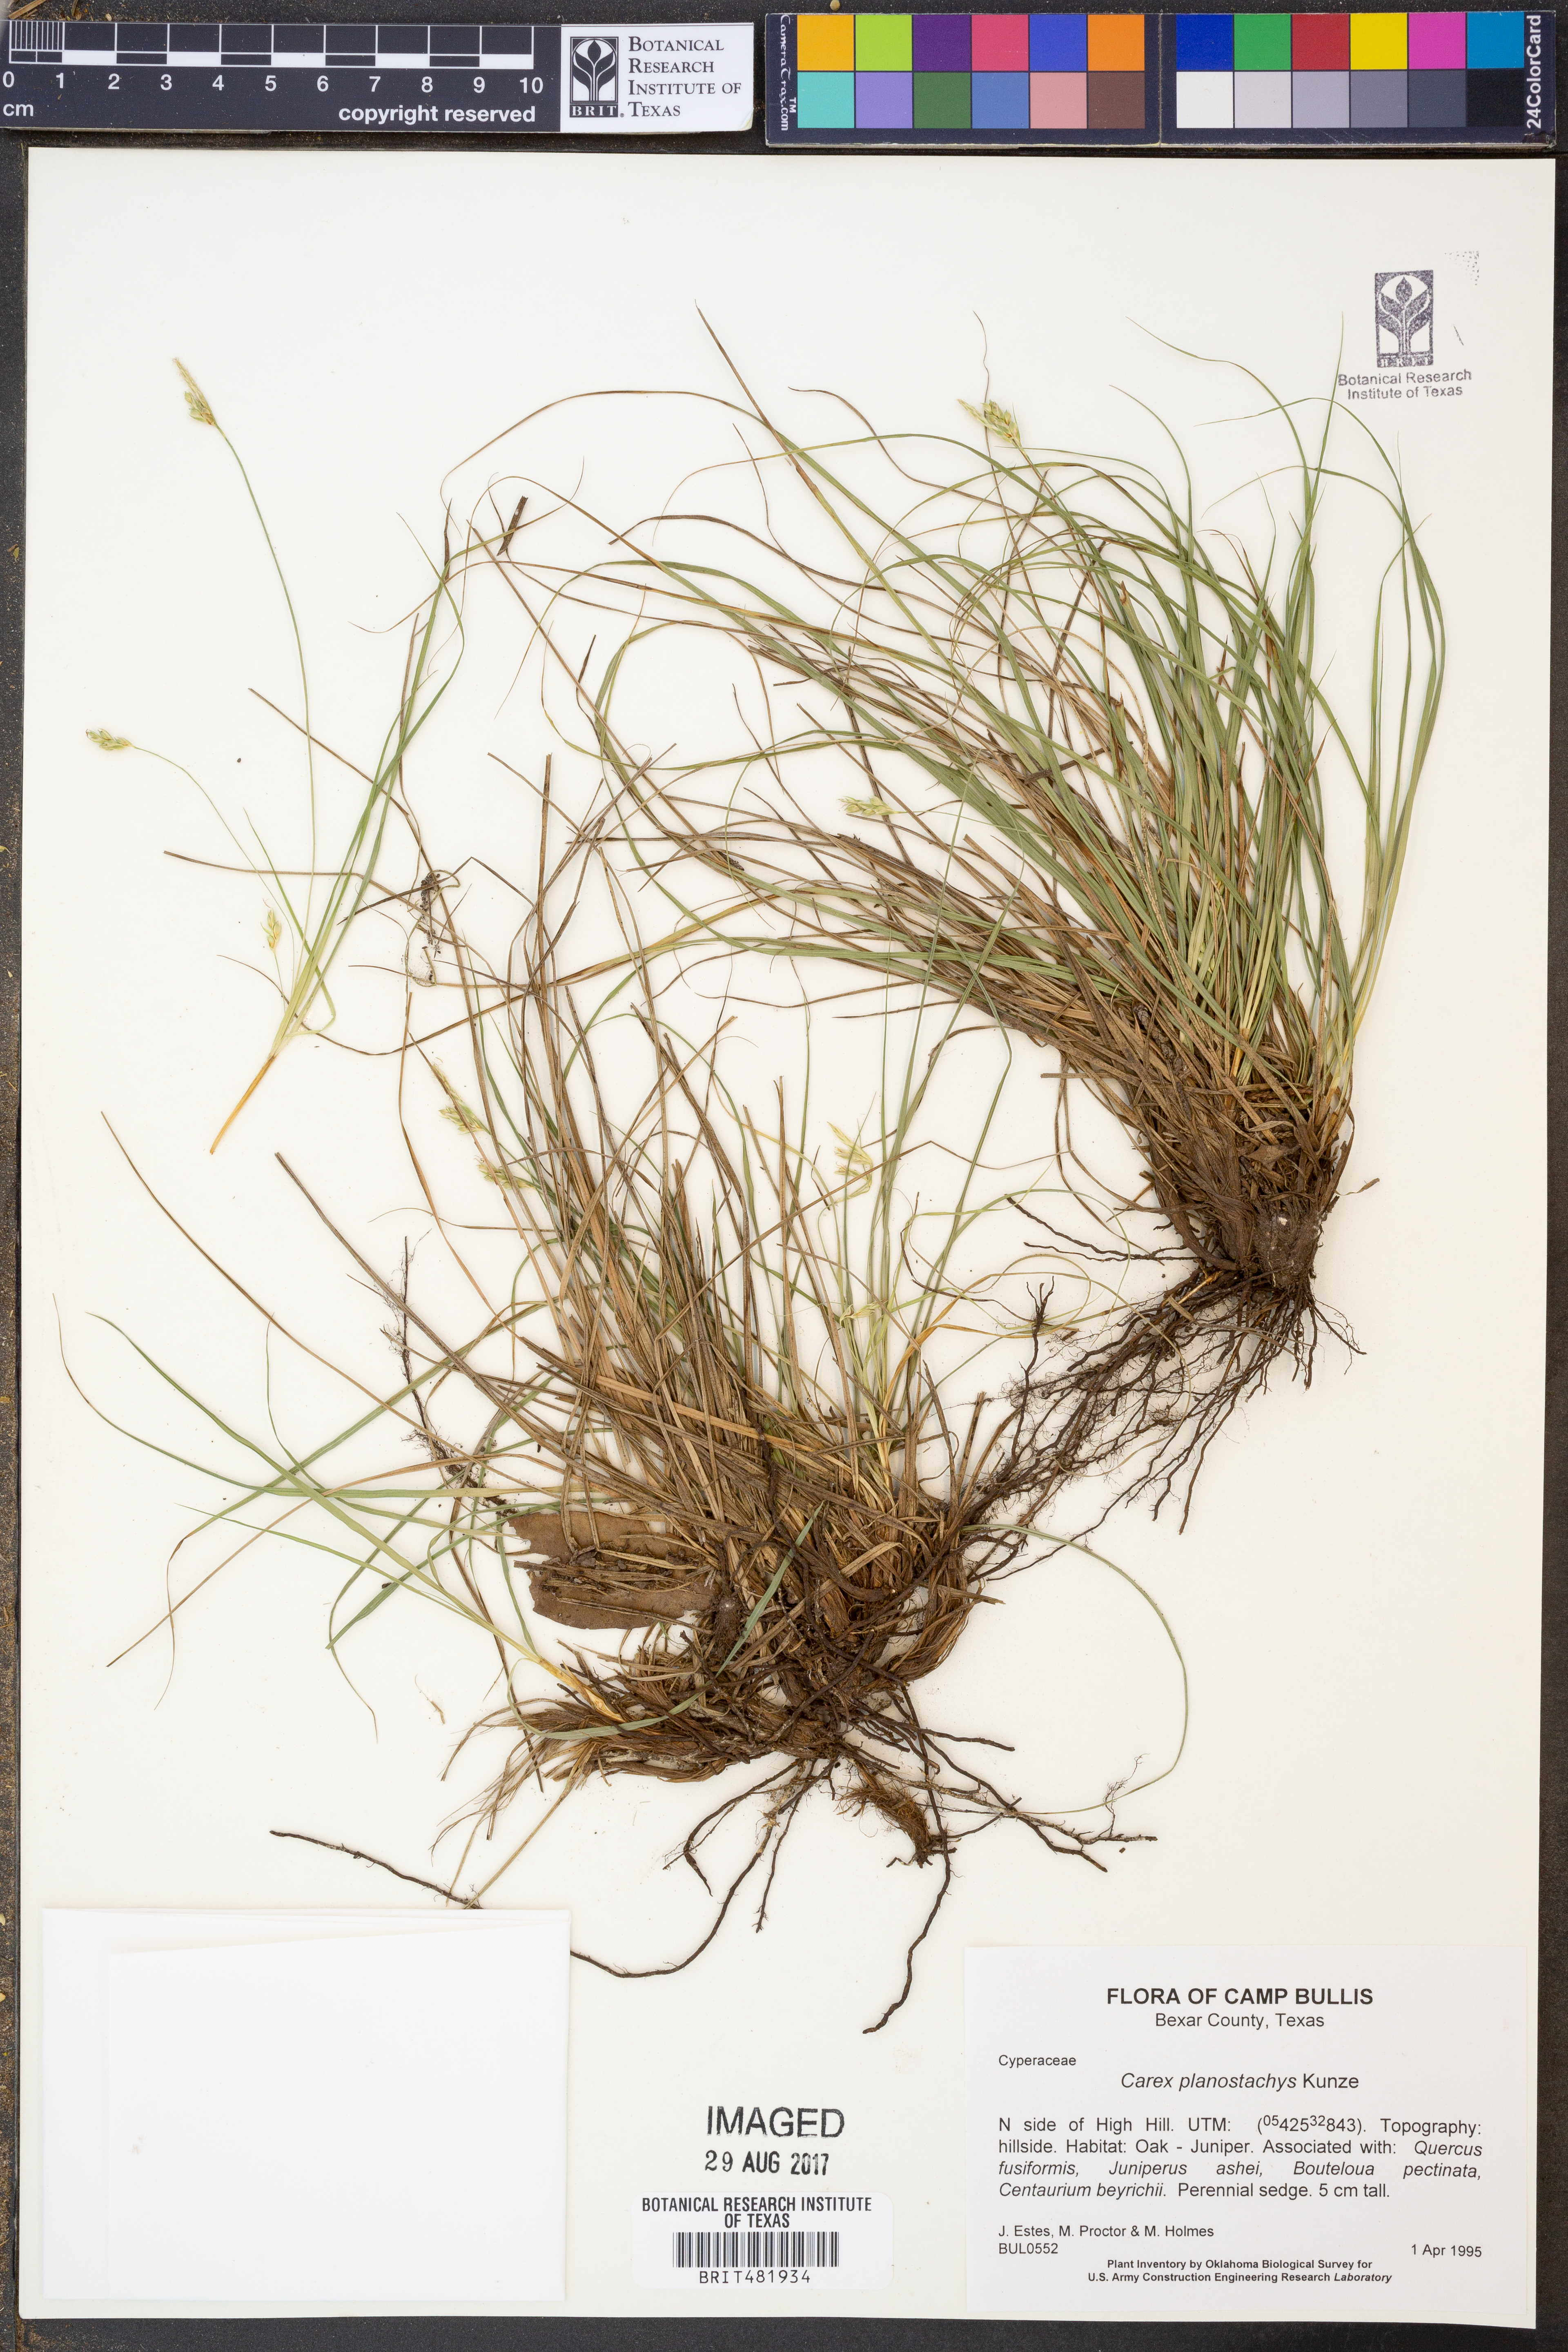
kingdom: Plantae
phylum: Tracheophyta
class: Liliopsida
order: Poales
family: Cyperaceae
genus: Carex
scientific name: Carex planostachys
